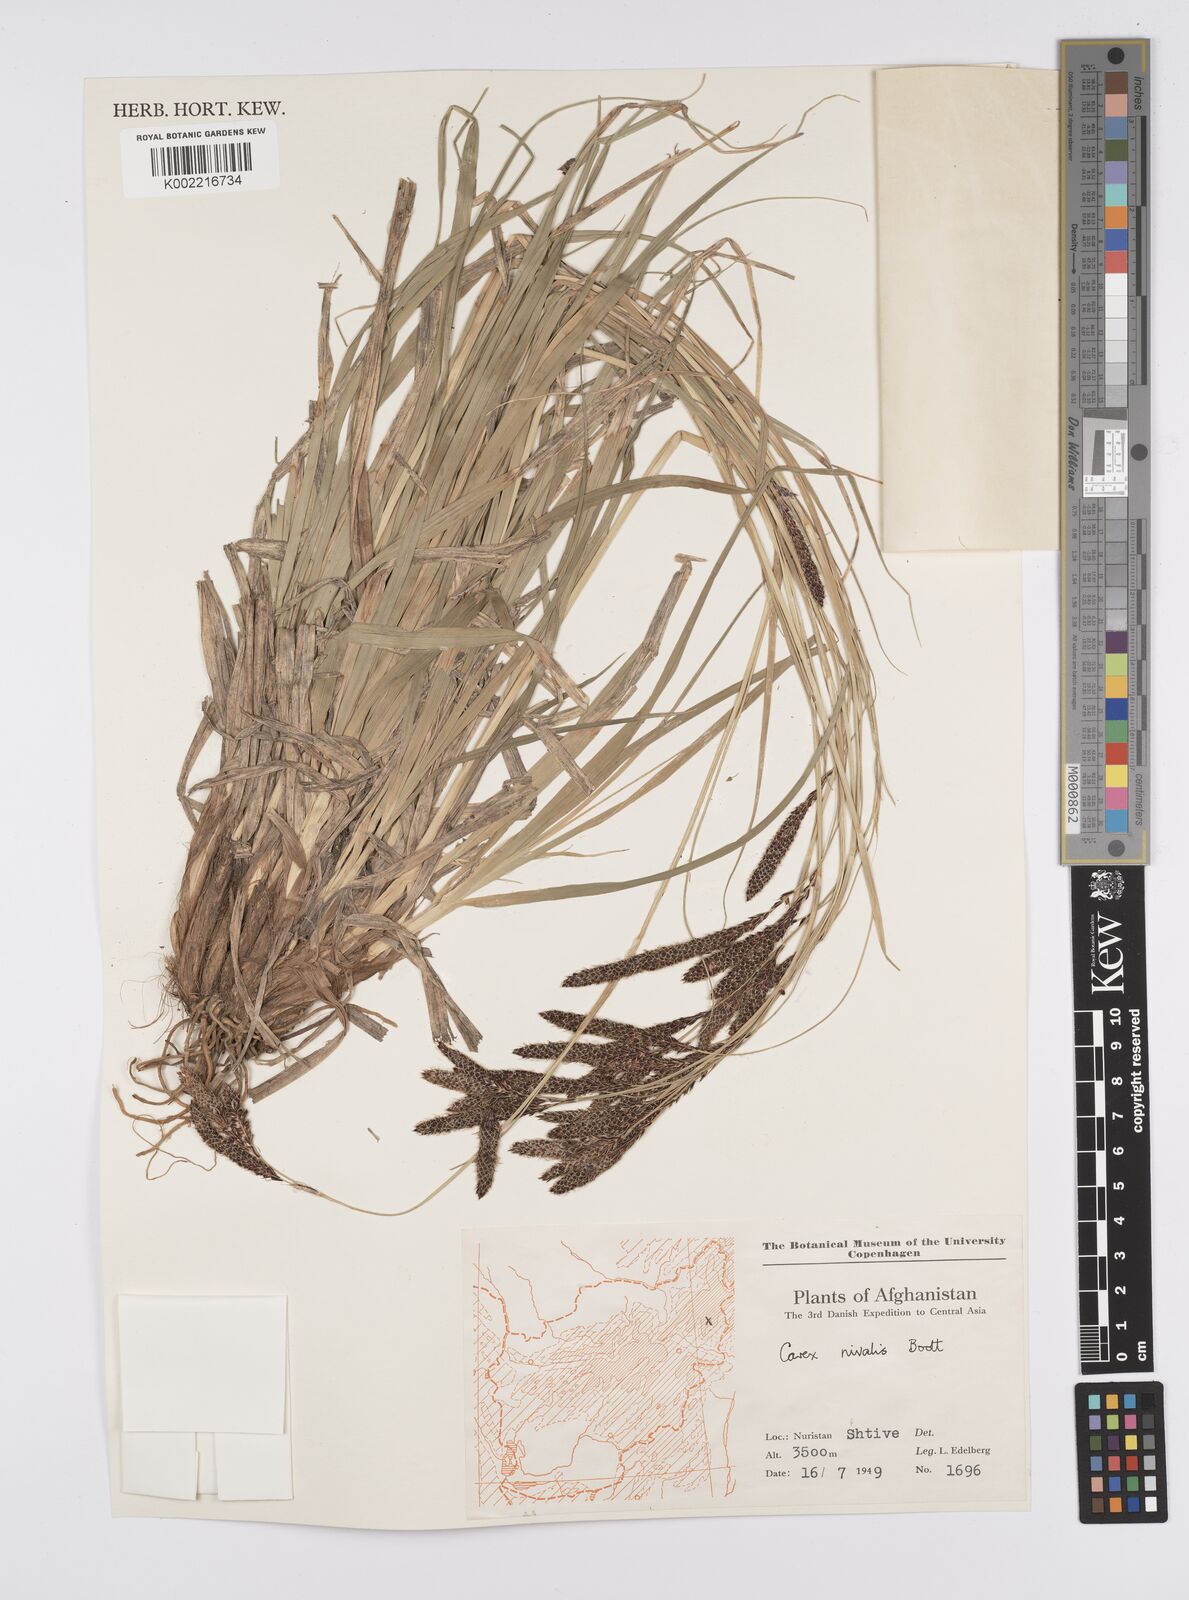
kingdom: Plantae
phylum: Tracheophyta
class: Liliopsida
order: Poales
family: Cyperaceae
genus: Carex
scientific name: Carex nivalis
